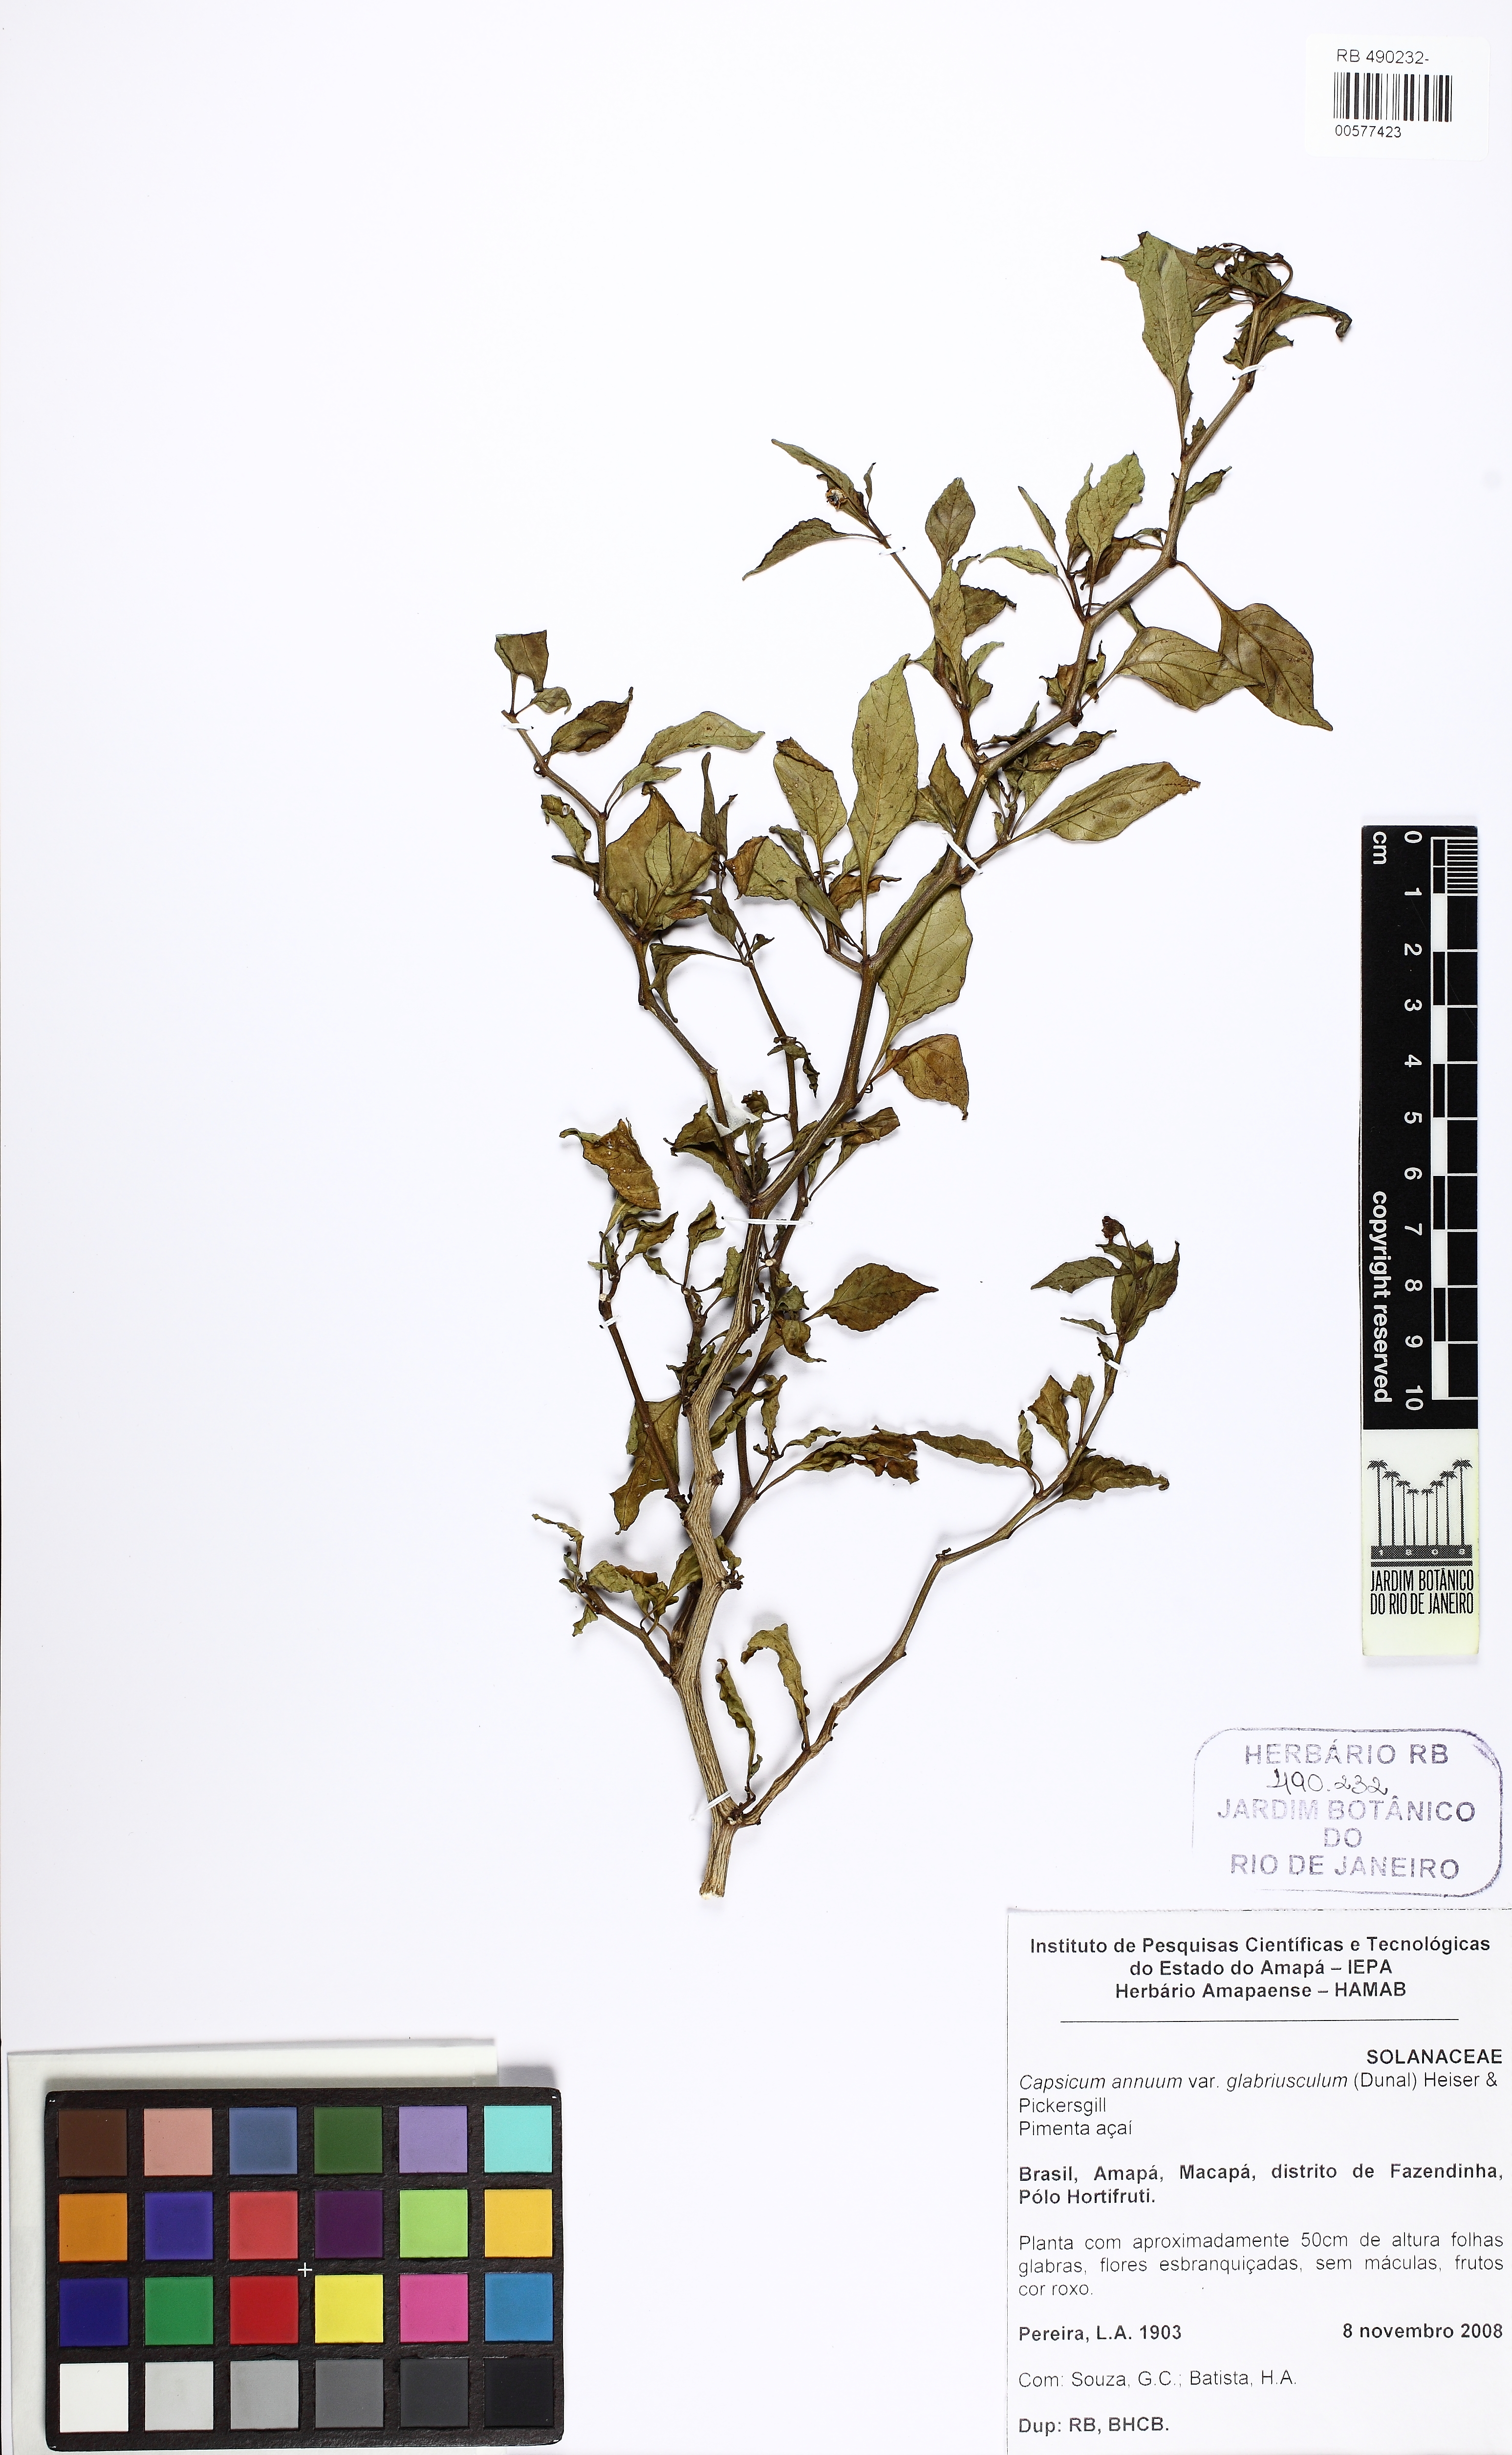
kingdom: Plantae
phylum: Tracheophyta
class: Magnoliopsida
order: Solanales
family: Solanaceae
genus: Capsicum
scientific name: Capsicum annuum
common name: Sweet pepper
